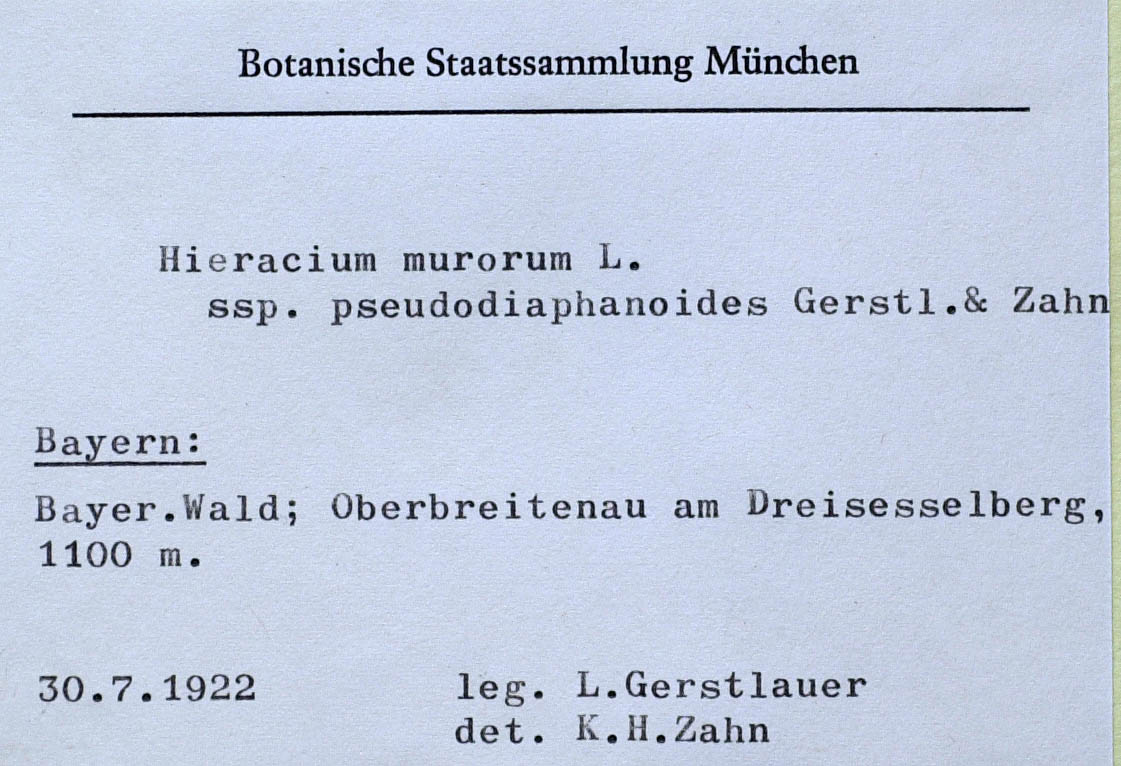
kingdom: Plantae
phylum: Tracheophyta
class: Magnoliopsida
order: Asterales
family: Asteraceae
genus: Hieracium
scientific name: Hieracium murorum
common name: Wall hawkweed
